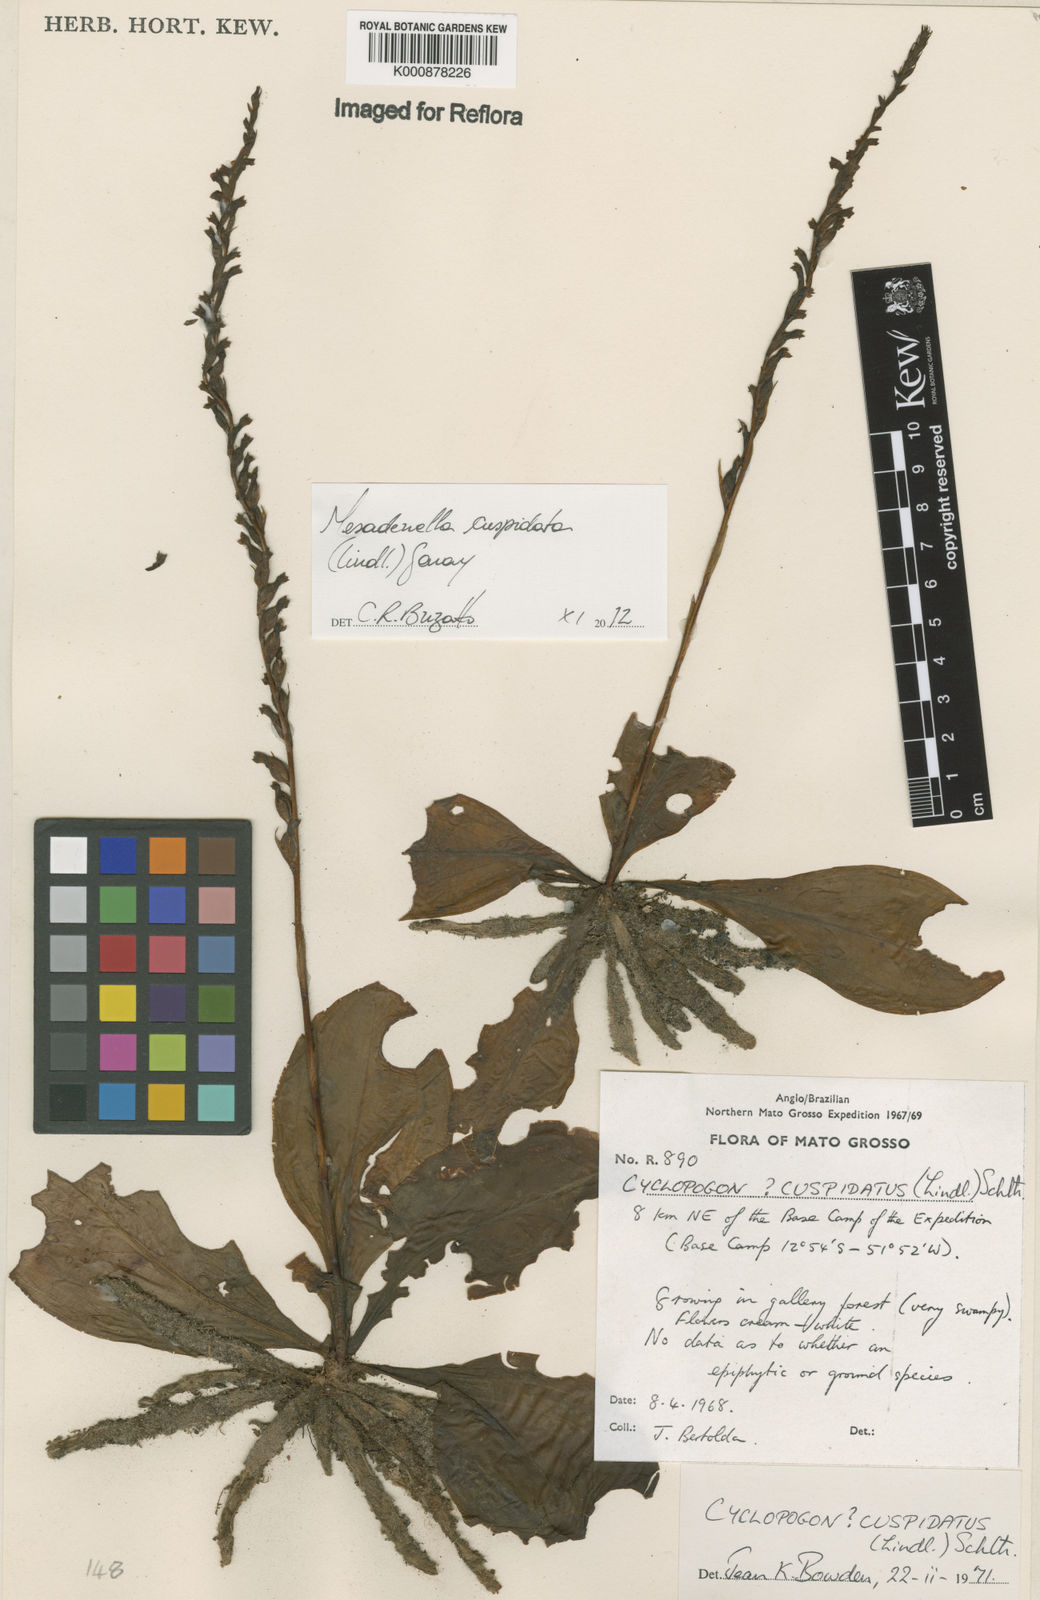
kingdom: Plantae
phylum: Tracheophyta
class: Liliopsida
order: Asparagales
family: Orchidaceae
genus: Mesadenella
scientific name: Mesadenella cuspidata
